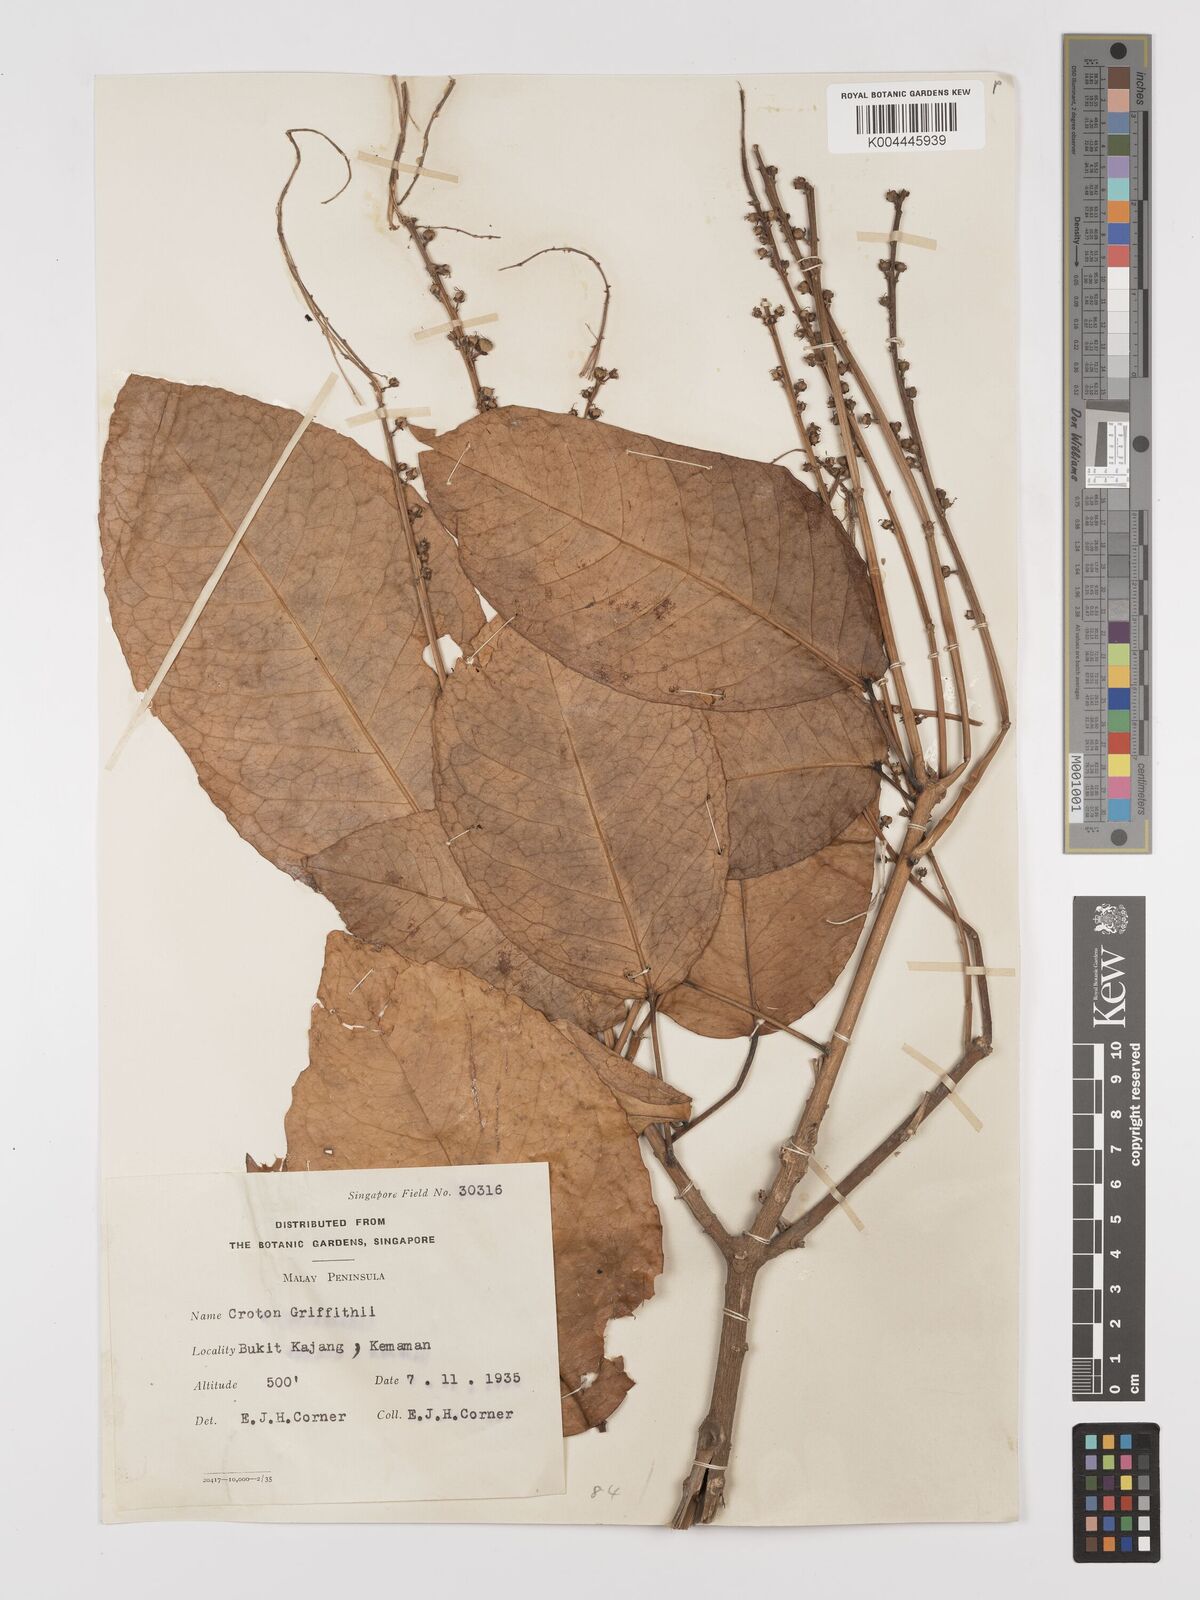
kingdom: Plantae
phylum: Tracheophyta
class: Magnoliopsida
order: Malpighiales
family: Euphorbiaceae
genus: Croton
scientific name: Croton griffithii
